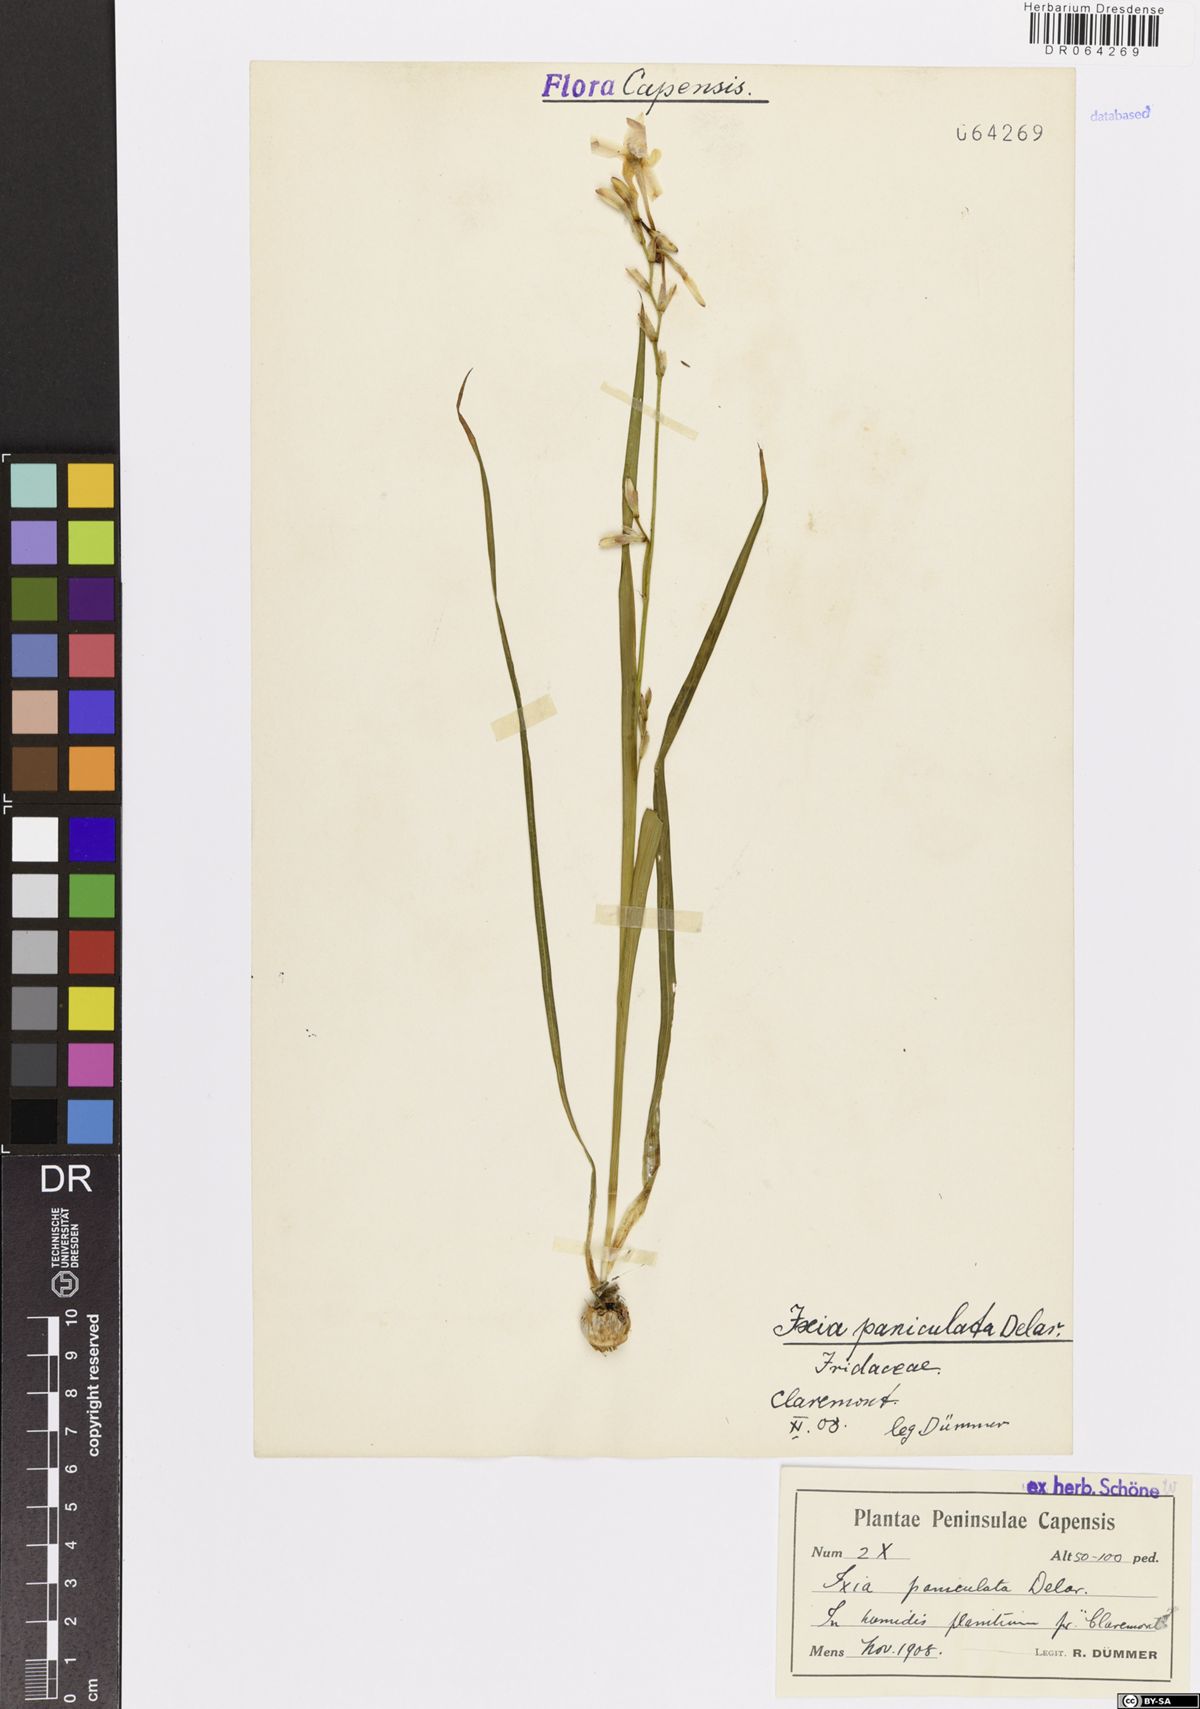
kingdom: Plantae
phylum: Tracheophyta
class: Liliopsida
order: Asparagales
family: Iridaceae
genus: Ixia
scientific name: Ixia paniculata
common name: Tubular corn-lily
